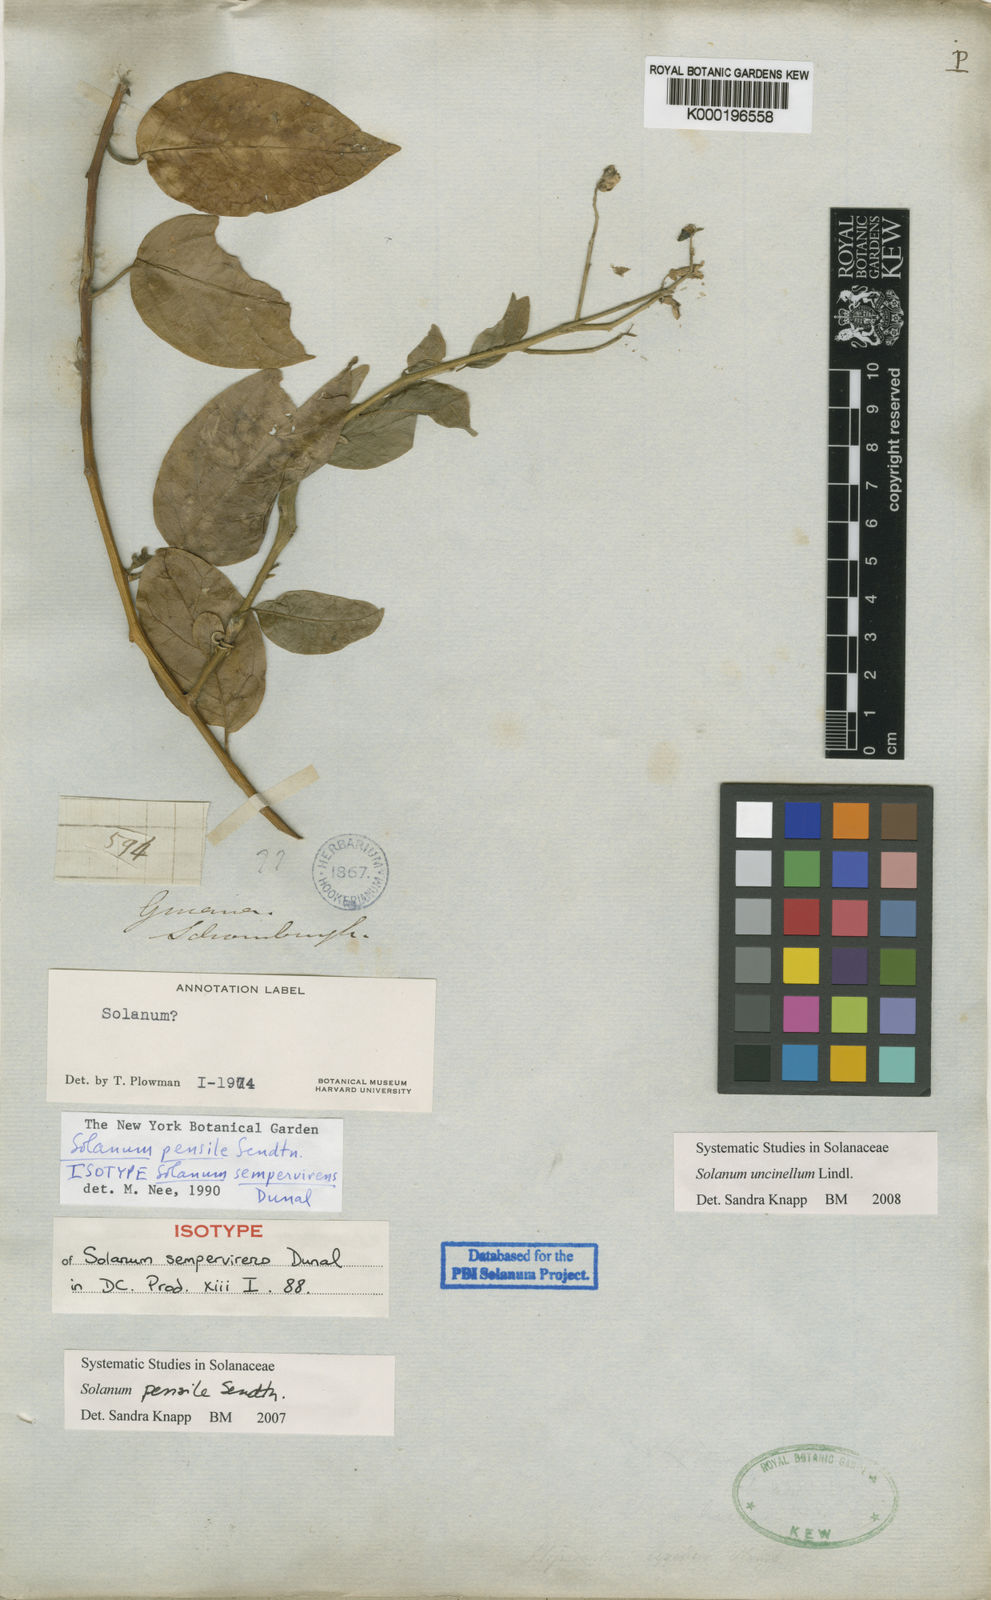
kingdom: Plantae
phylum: Tracheophyta
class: Magnoliopsida
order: Solanales
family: Solanaceae
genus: Solanum
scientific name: Solanum uncinellum
